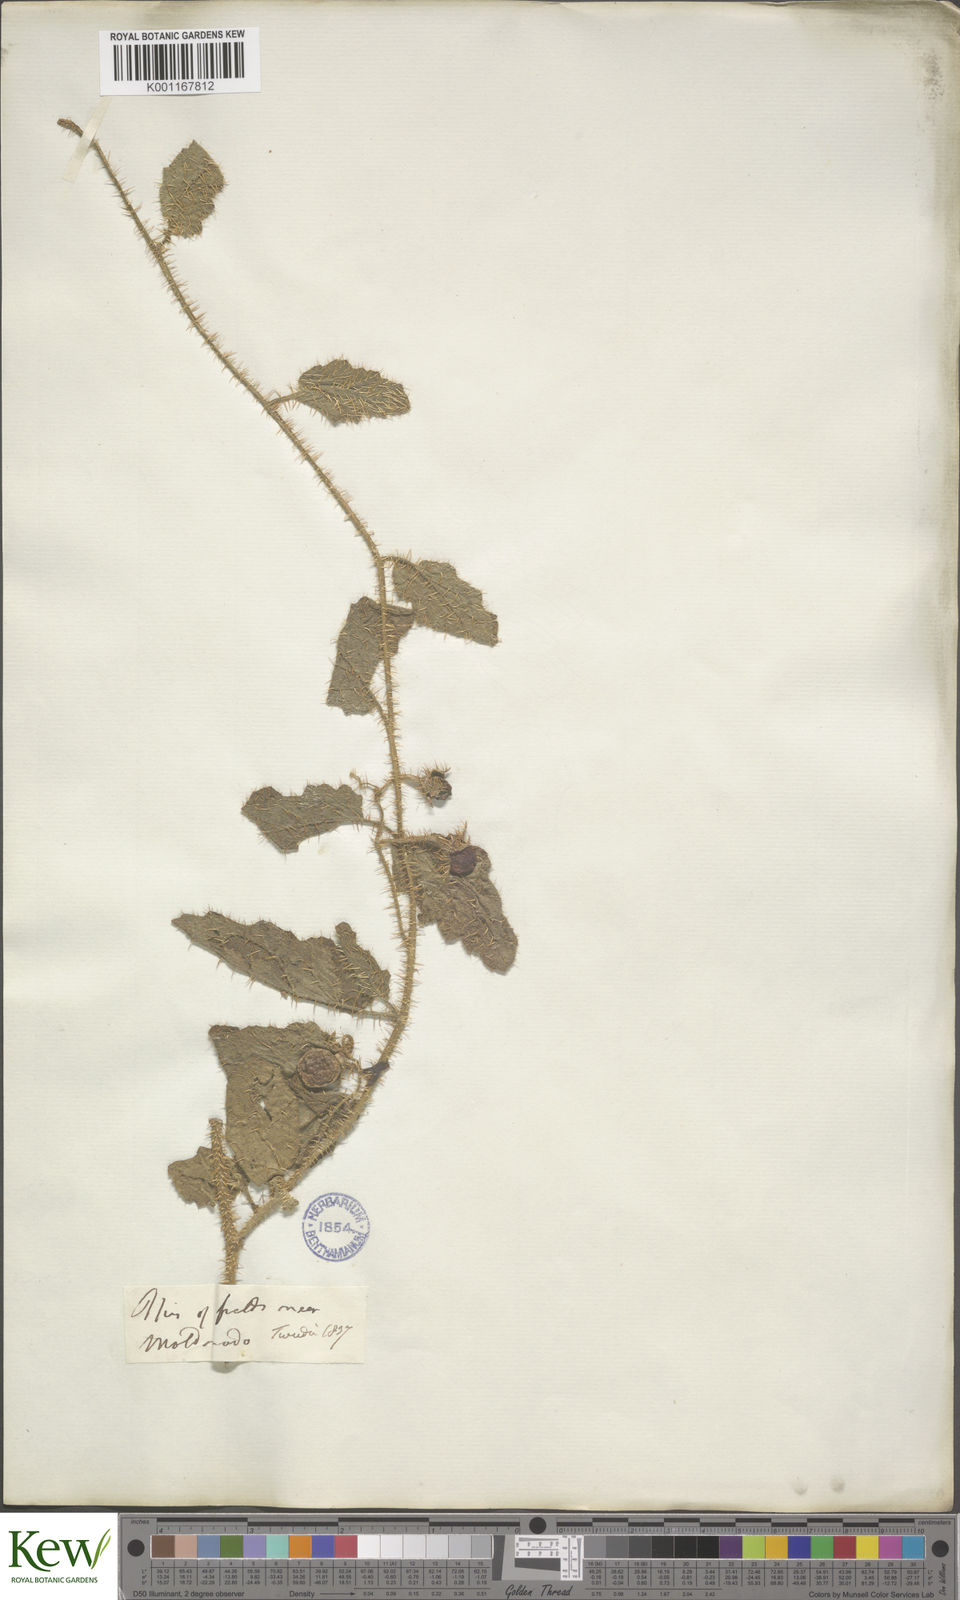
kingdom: Plantae
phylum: Tracheophyta
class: Magnoliopsida
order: Solanales
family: Solanaceae
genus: Solanum
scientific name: Solanum agrarium
